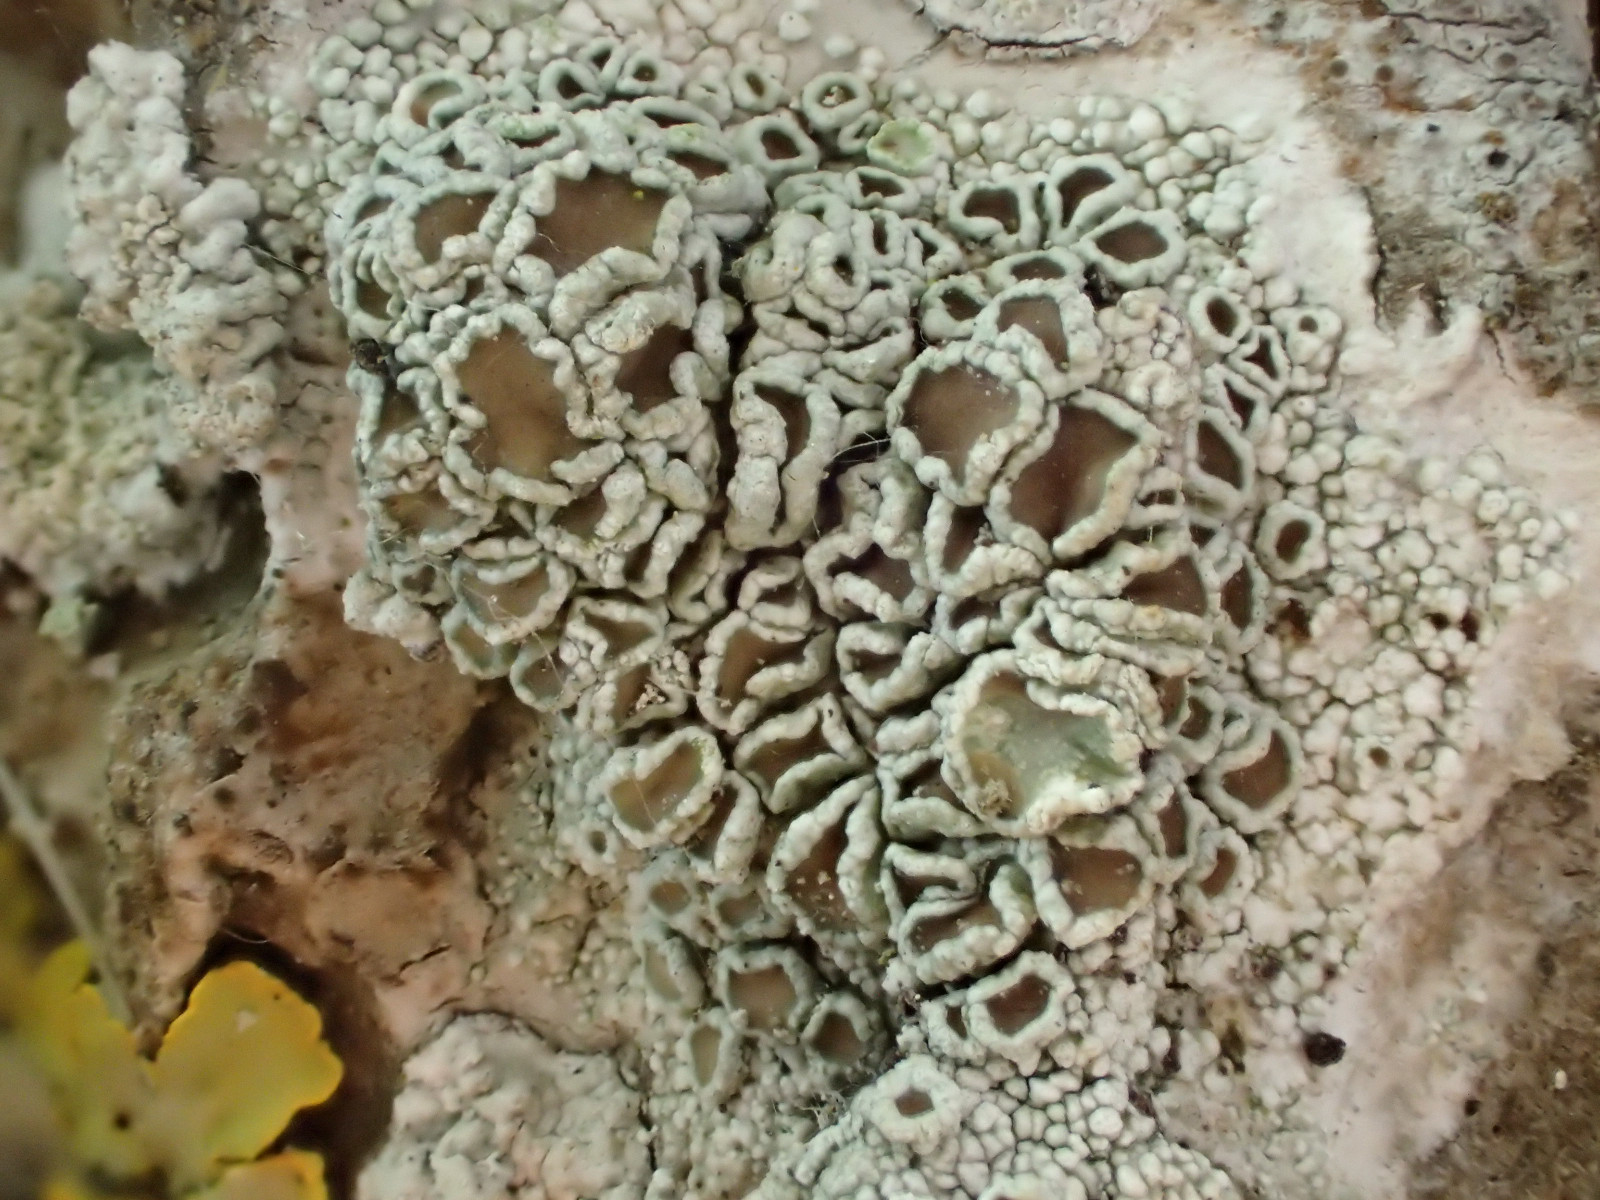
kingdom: Fungi
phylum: Ascomycota
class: Lecanoromycetes
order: Lecanorales
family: Lecanoraceae
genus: Lecanora
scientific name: Lecanora chlarotera
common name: brun kantskivelav
